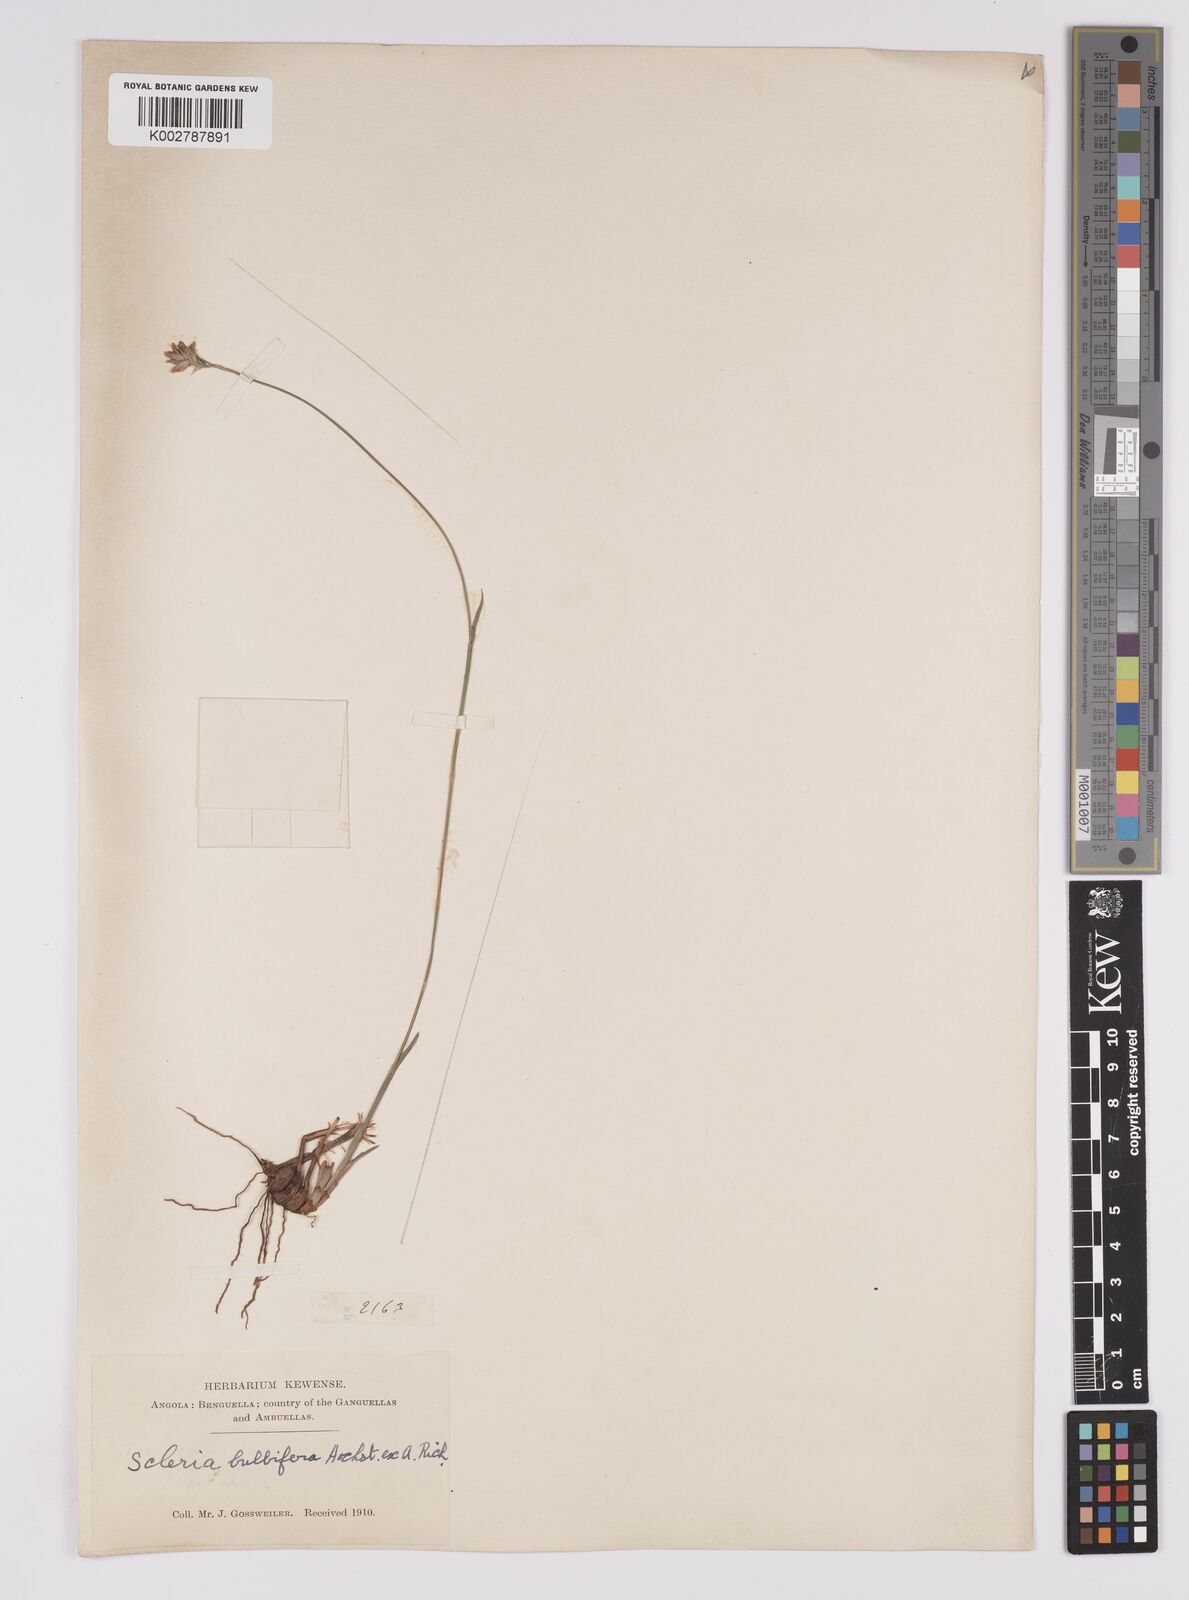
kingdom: Plantae
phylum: Tracheophyta
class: Liliopsida
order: Poales
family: Cyperaceae
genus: Scleria
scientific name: Scleria bulbifera
